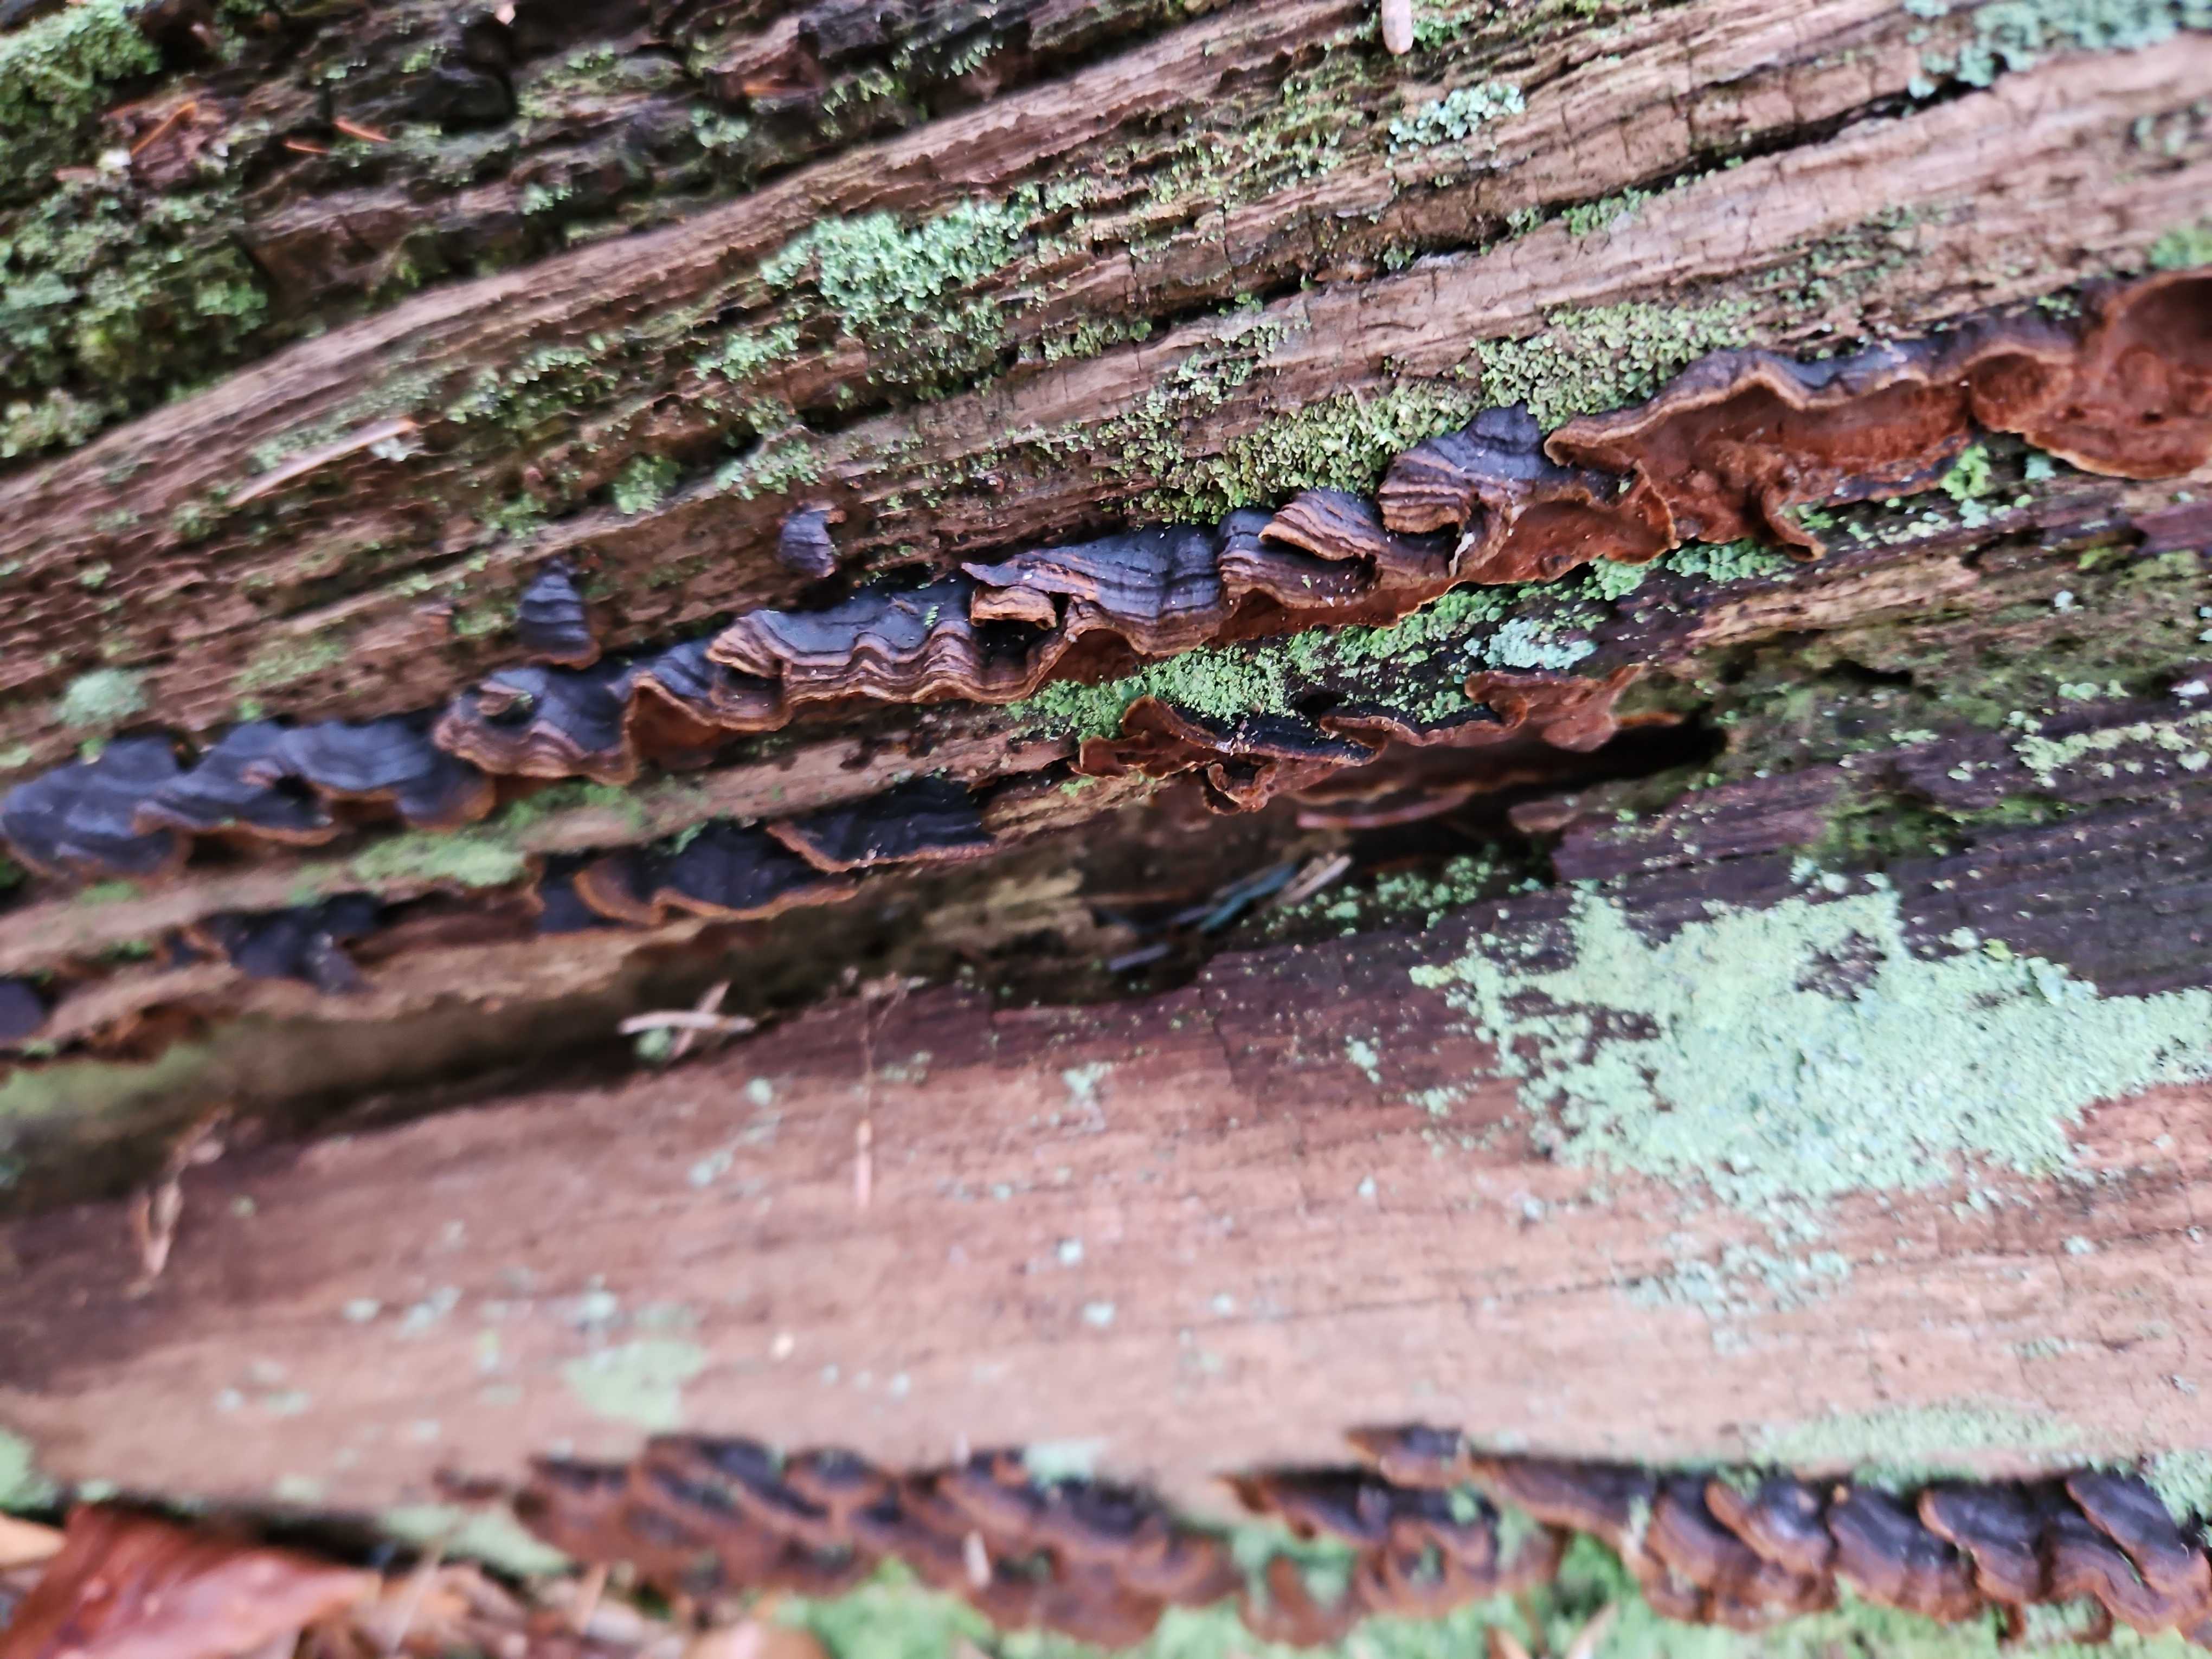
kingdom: Fungi
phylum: Basidiomycota
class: Agaricomycetes
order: Hymenochaetales
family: Hymenochaetaceae
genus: Hymenochaete
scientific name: Hymenochaete rubiginosa
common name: stiv ruslædersvamp
